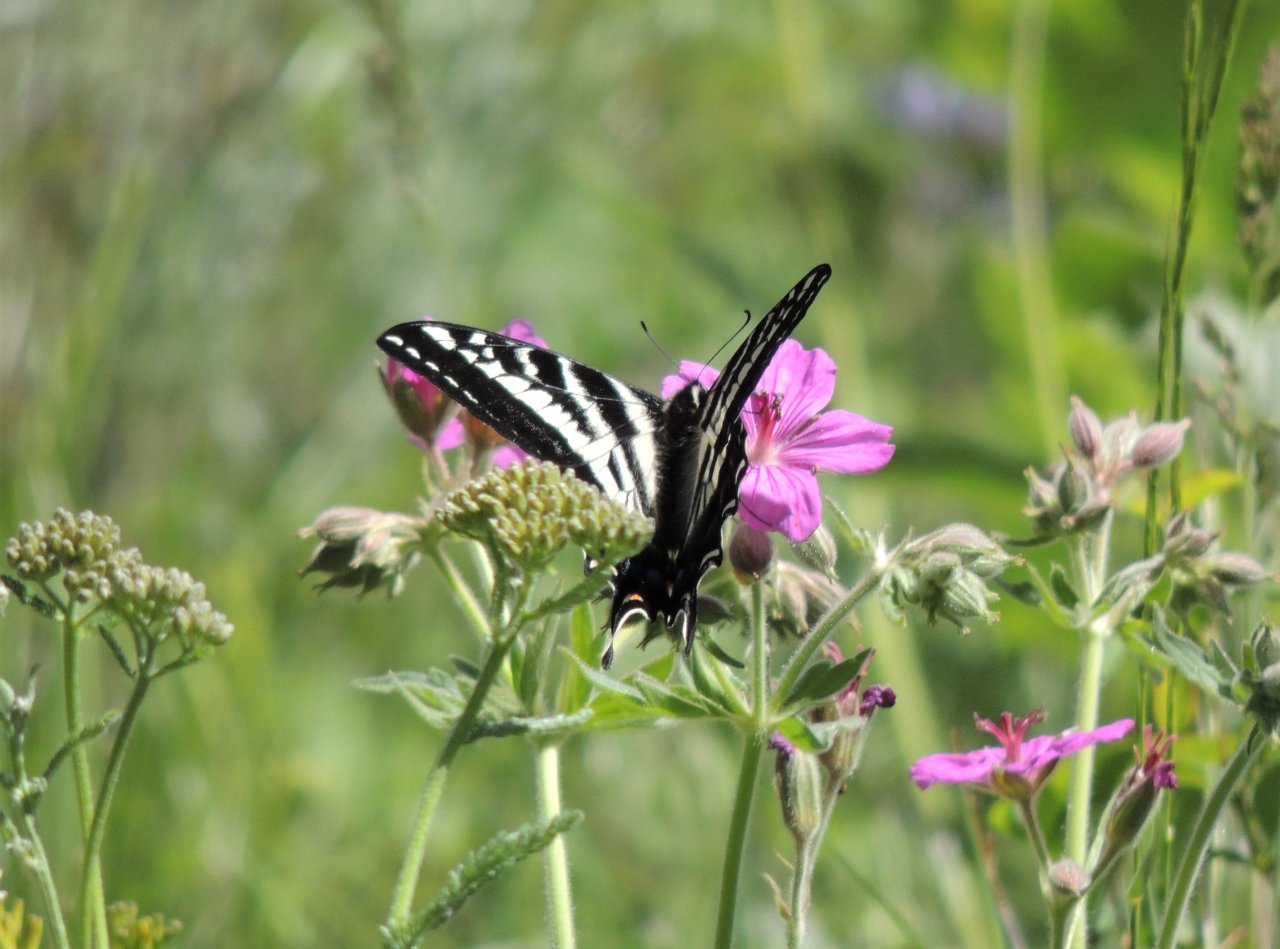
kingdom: Animalia
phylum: Arthropoda
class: Insecta
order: Lepidoptera
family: Papilionidae
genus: Pterourus
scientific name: Pterourus eurymedon
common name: Pale Swallowtail
